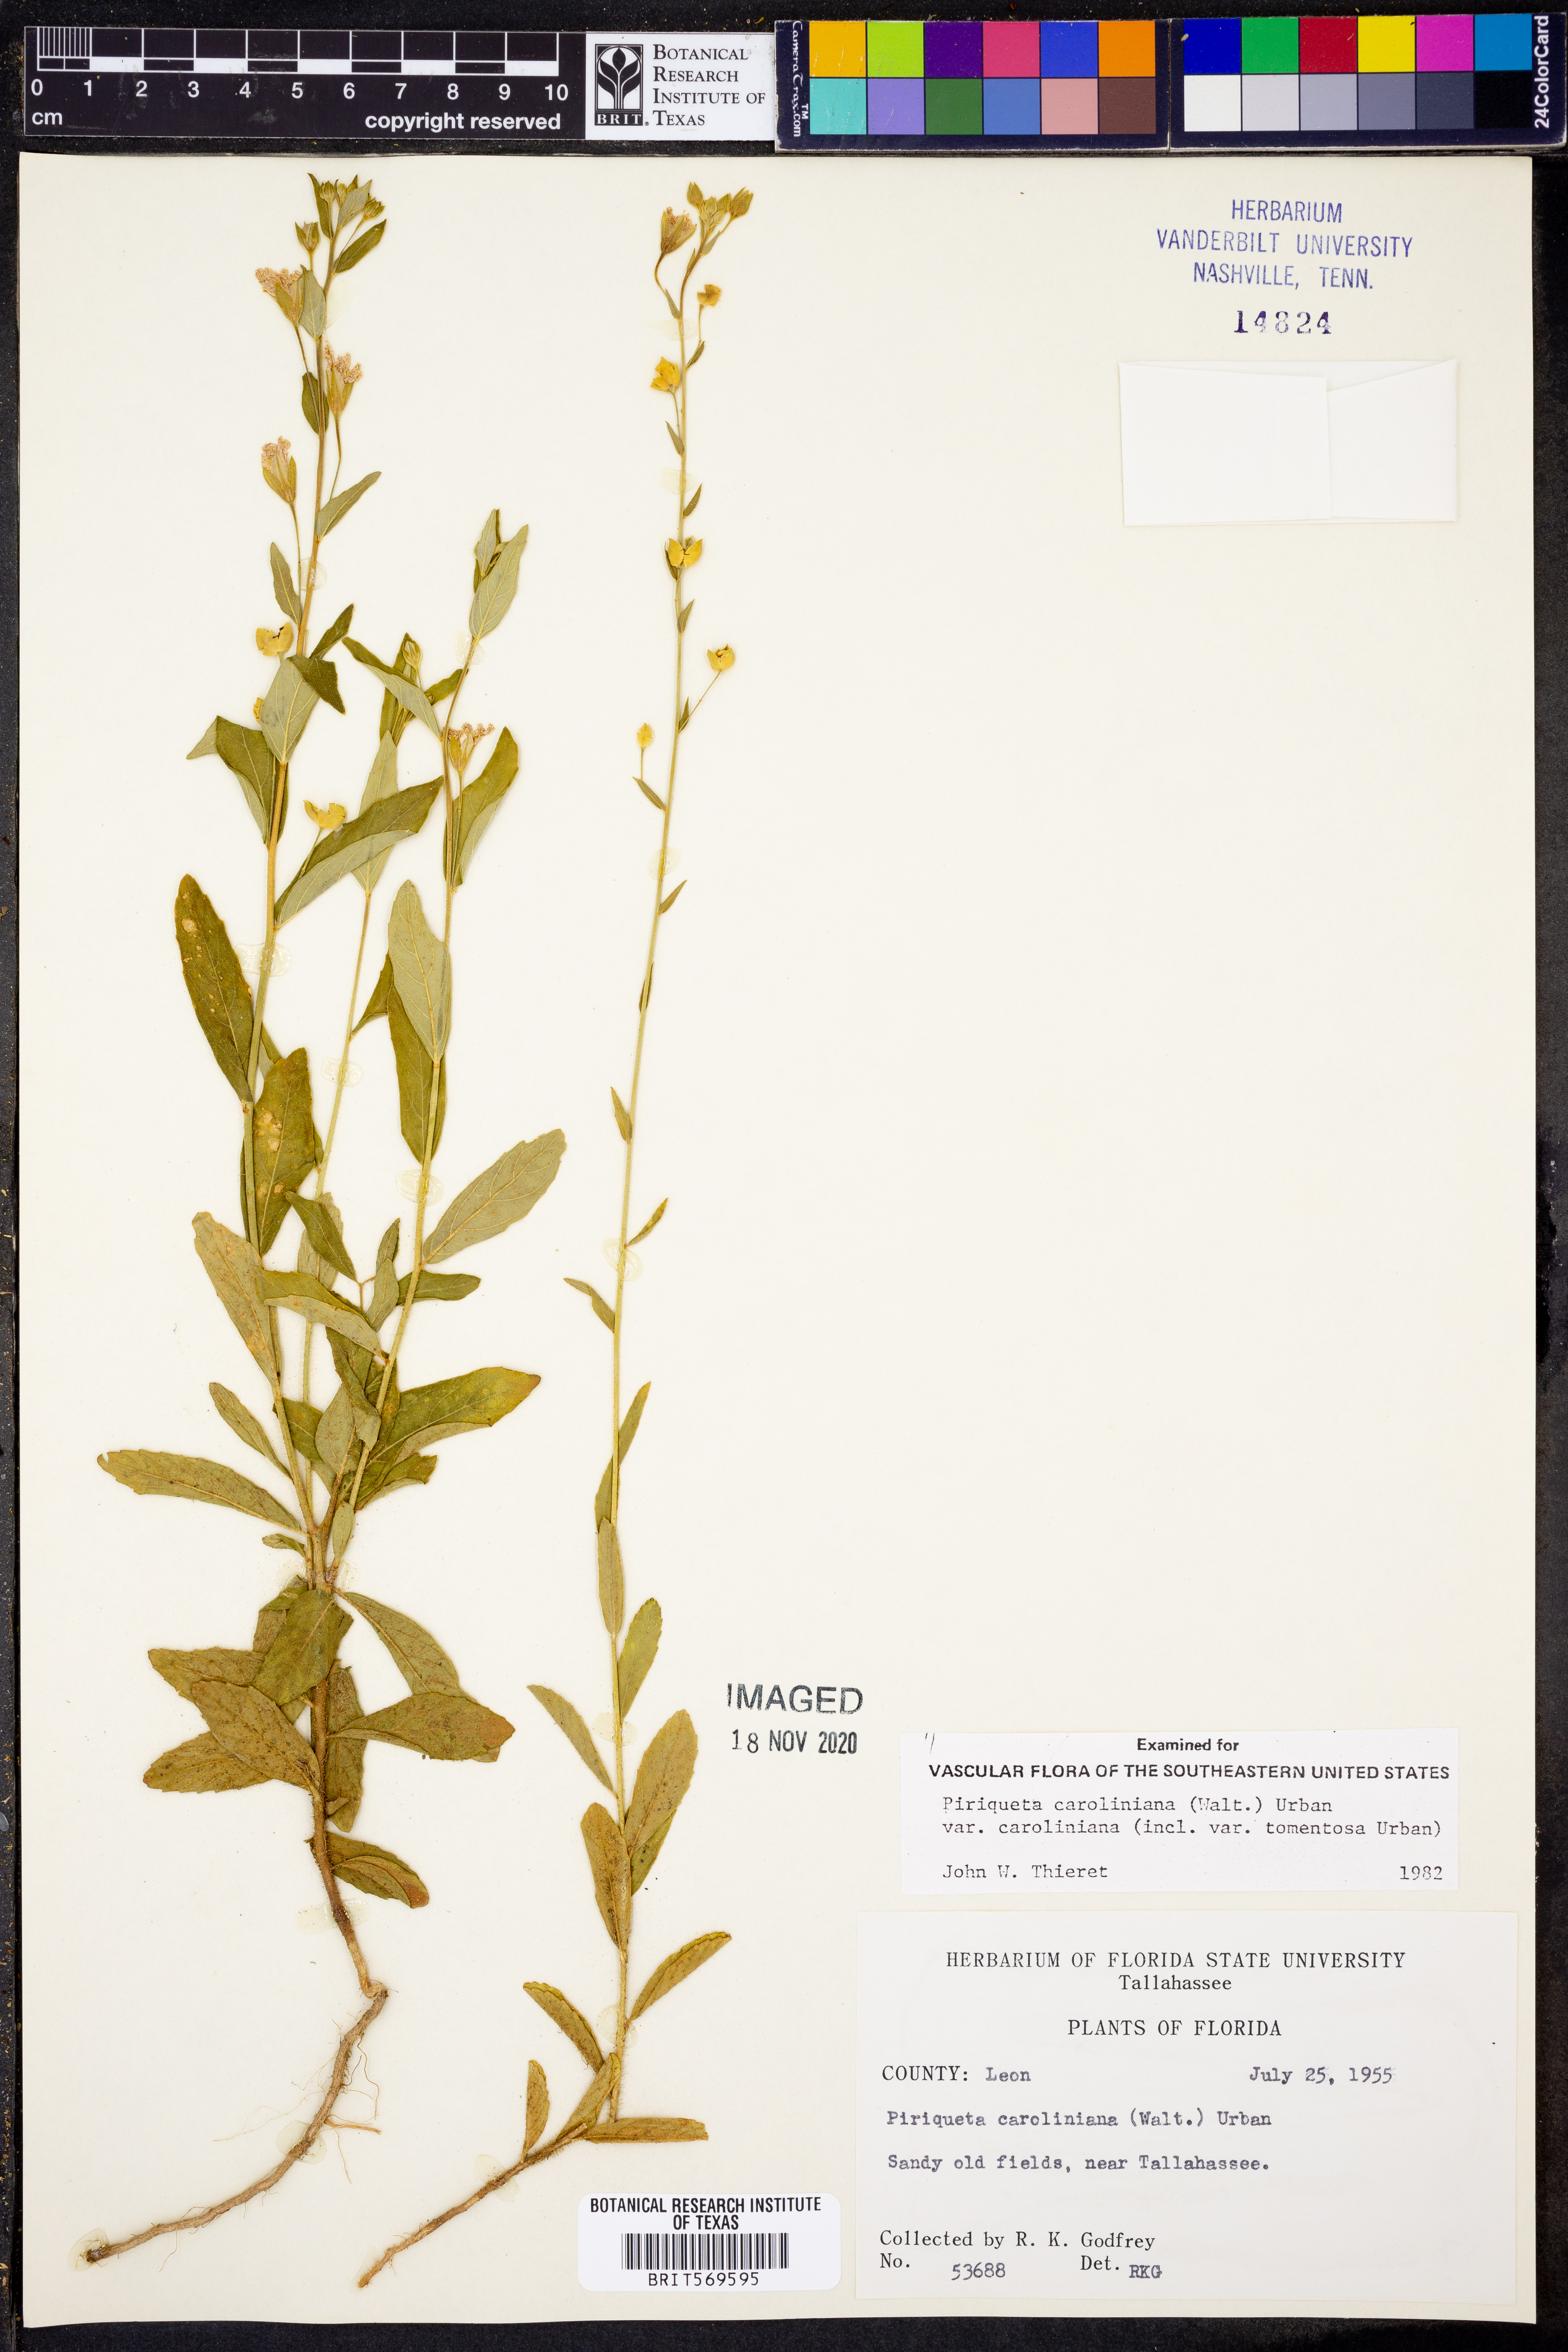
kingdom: Plantae
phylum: Tracheophyta
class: Magnoliopsida
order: Malpighiales
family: Turneraceae
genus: Piriqueta
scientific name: Piriqueta cistoides
